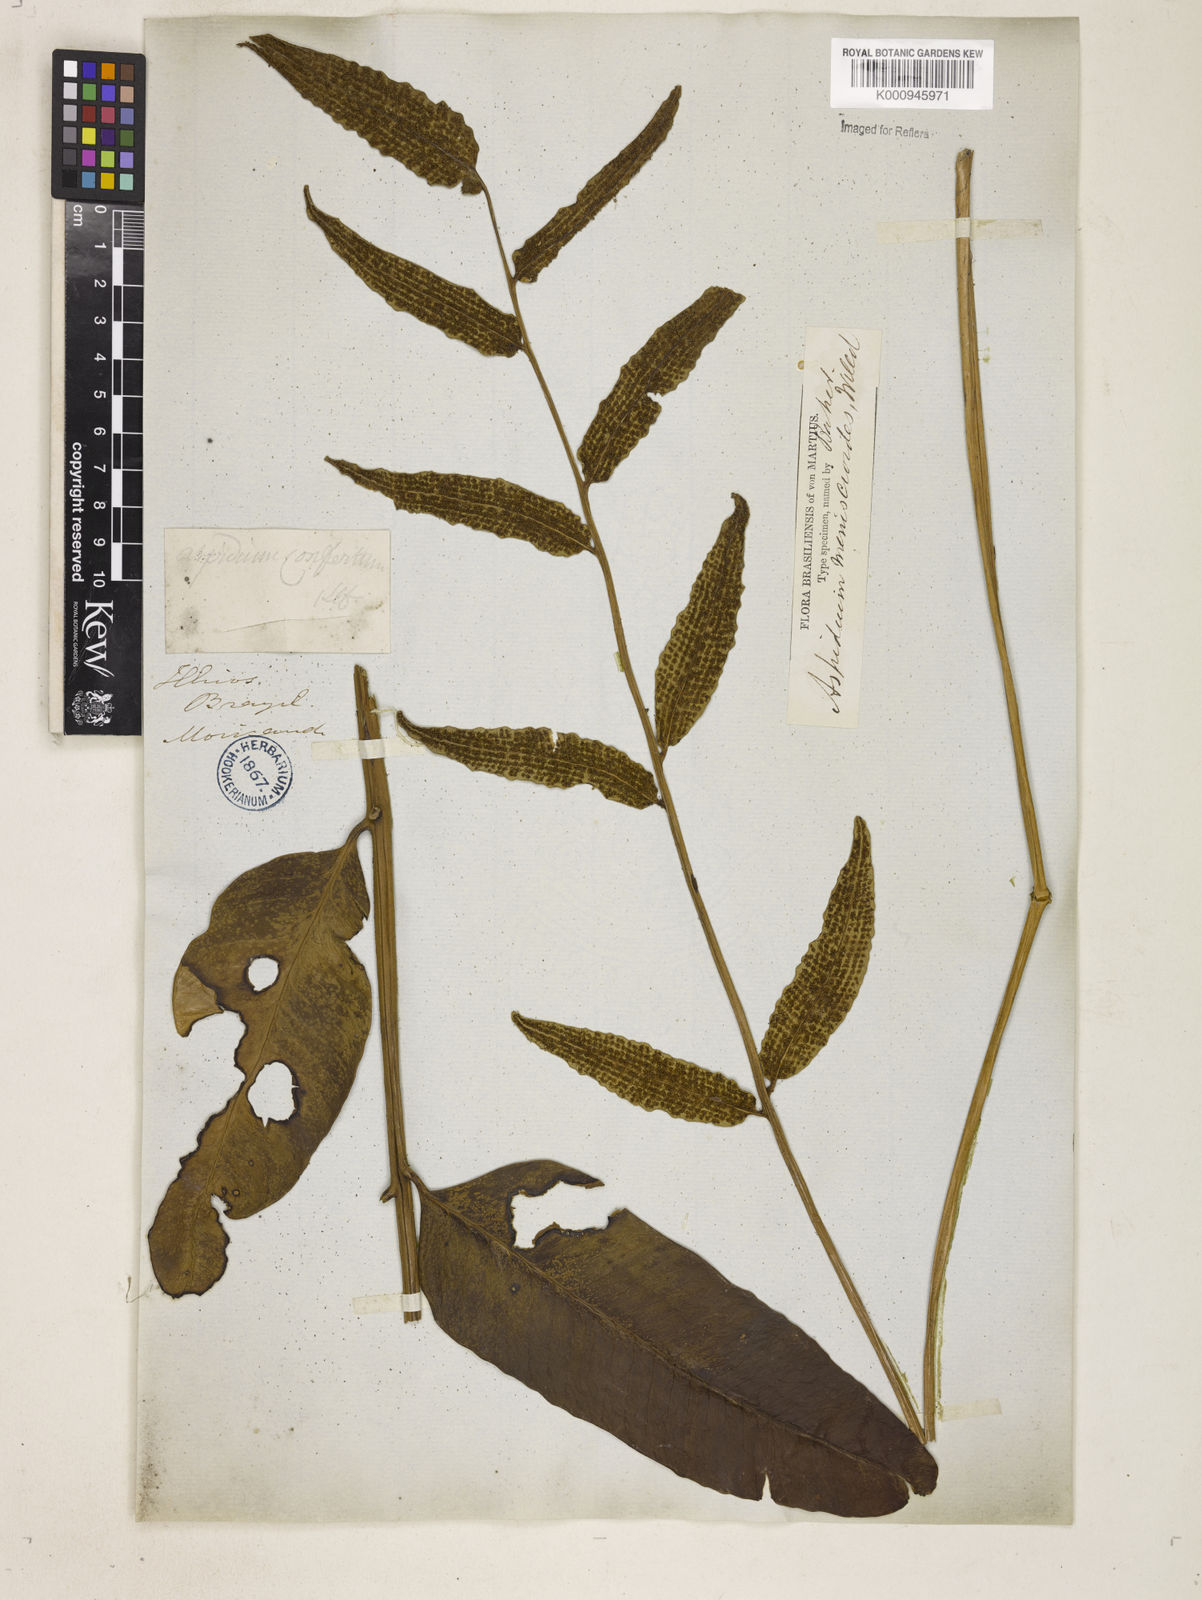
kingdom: Plantae
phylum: Tracheophyta
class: Polypodiopsida
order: Polypodiales
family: Dryopteridaceae
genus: Cyclodium
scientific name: Cyclodium meniscioides
